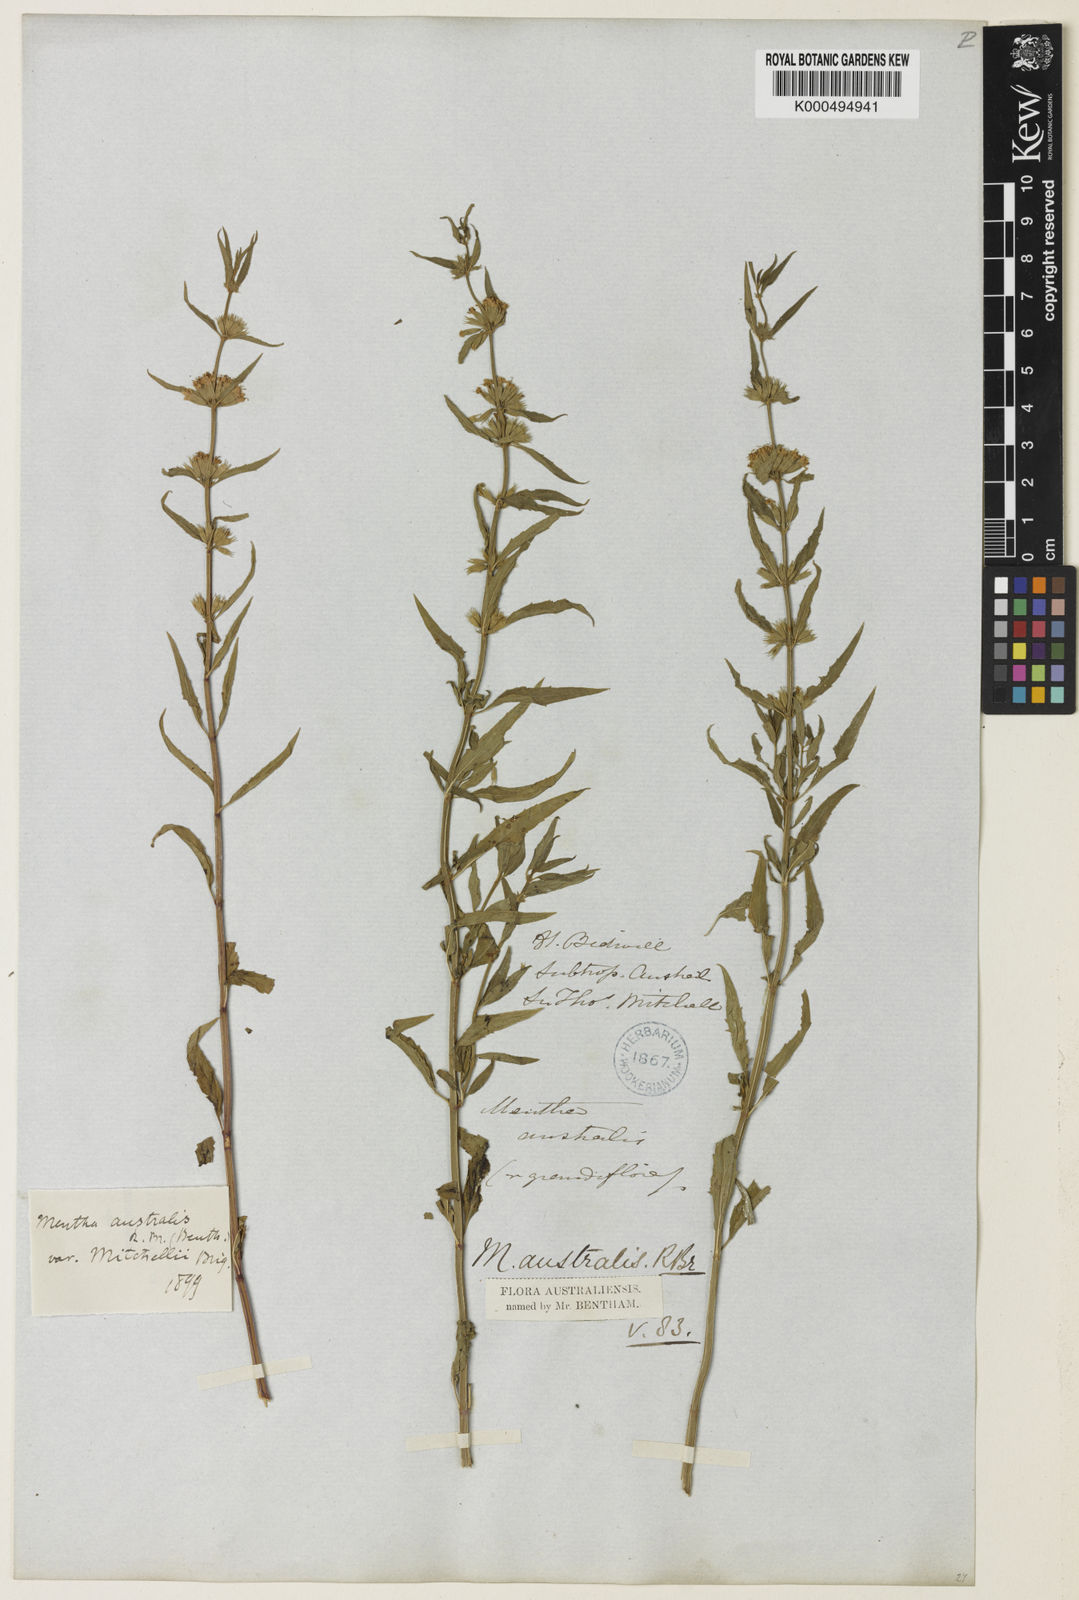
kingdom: Plantae
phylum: Tracheophyta
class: Magnoliopsida
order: Lamiales
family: Lamiaceae
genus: Mentha
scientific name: Mentha australis
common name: Australian mint
